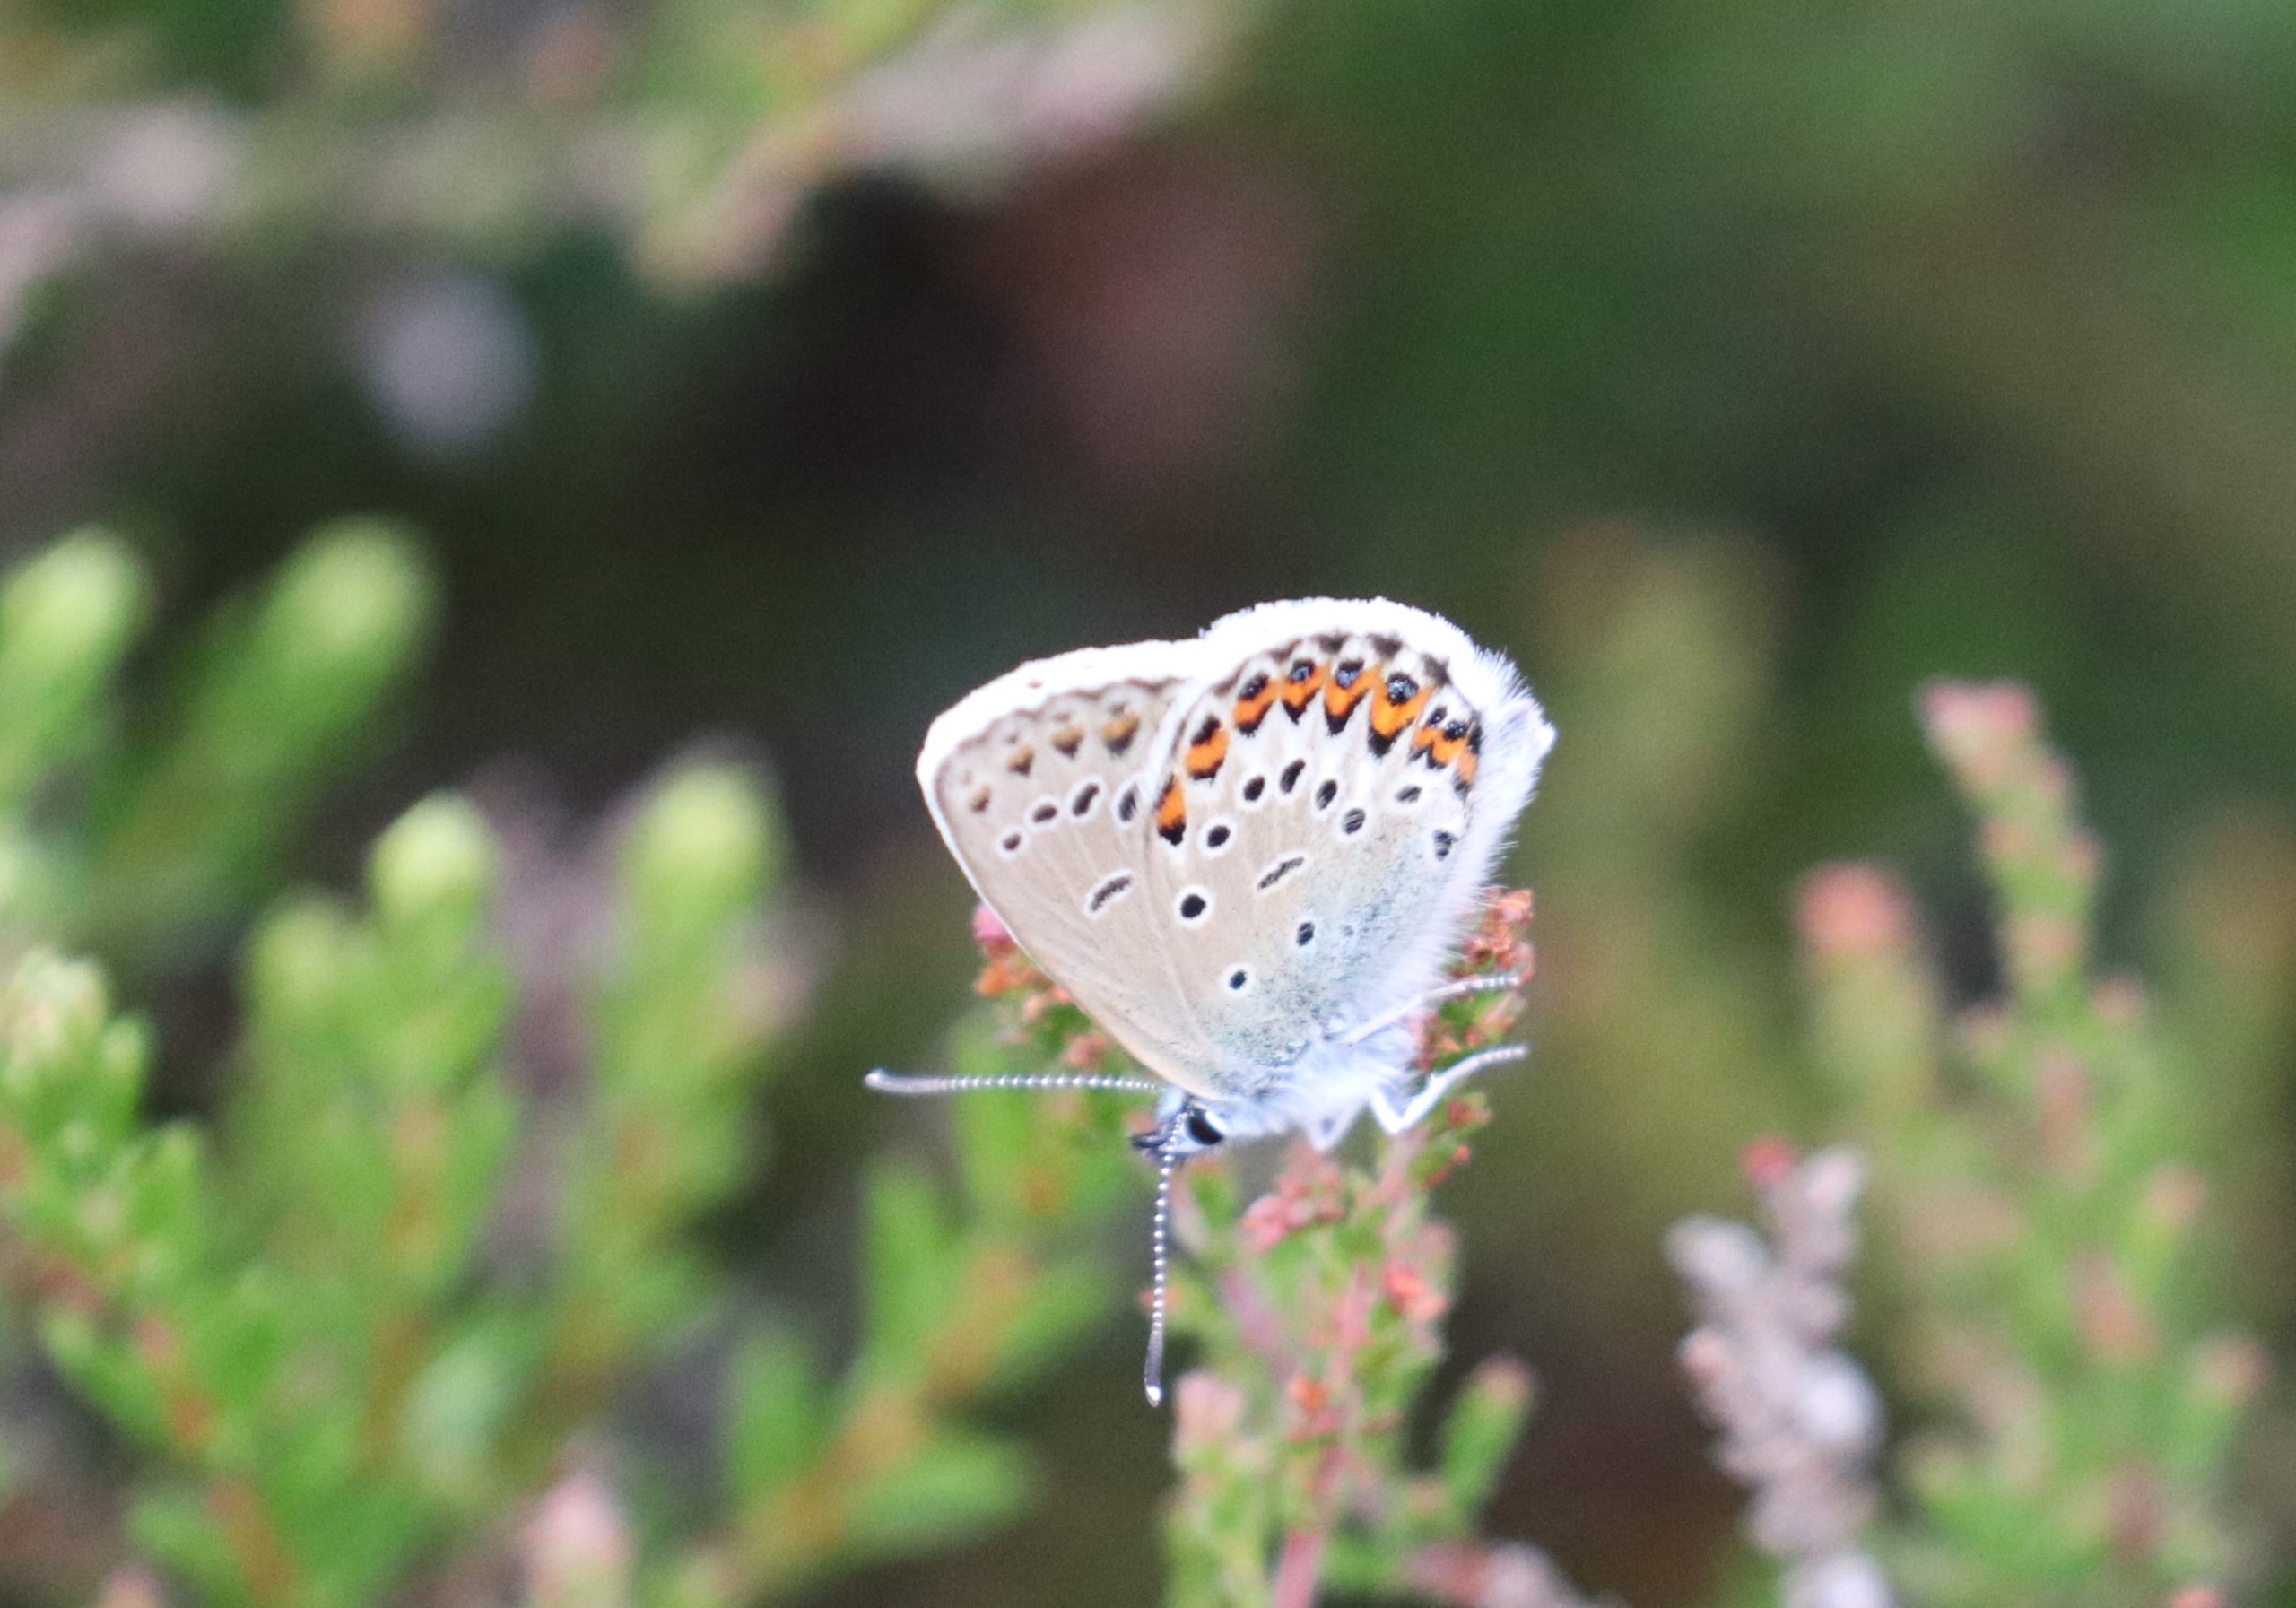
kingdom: Animalia
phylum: Arthropoda
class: Insecta
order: Lepidoptera
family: Lycaenidae
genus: Plebejus
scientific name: Plebejus argus
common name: Argusblåfugl
